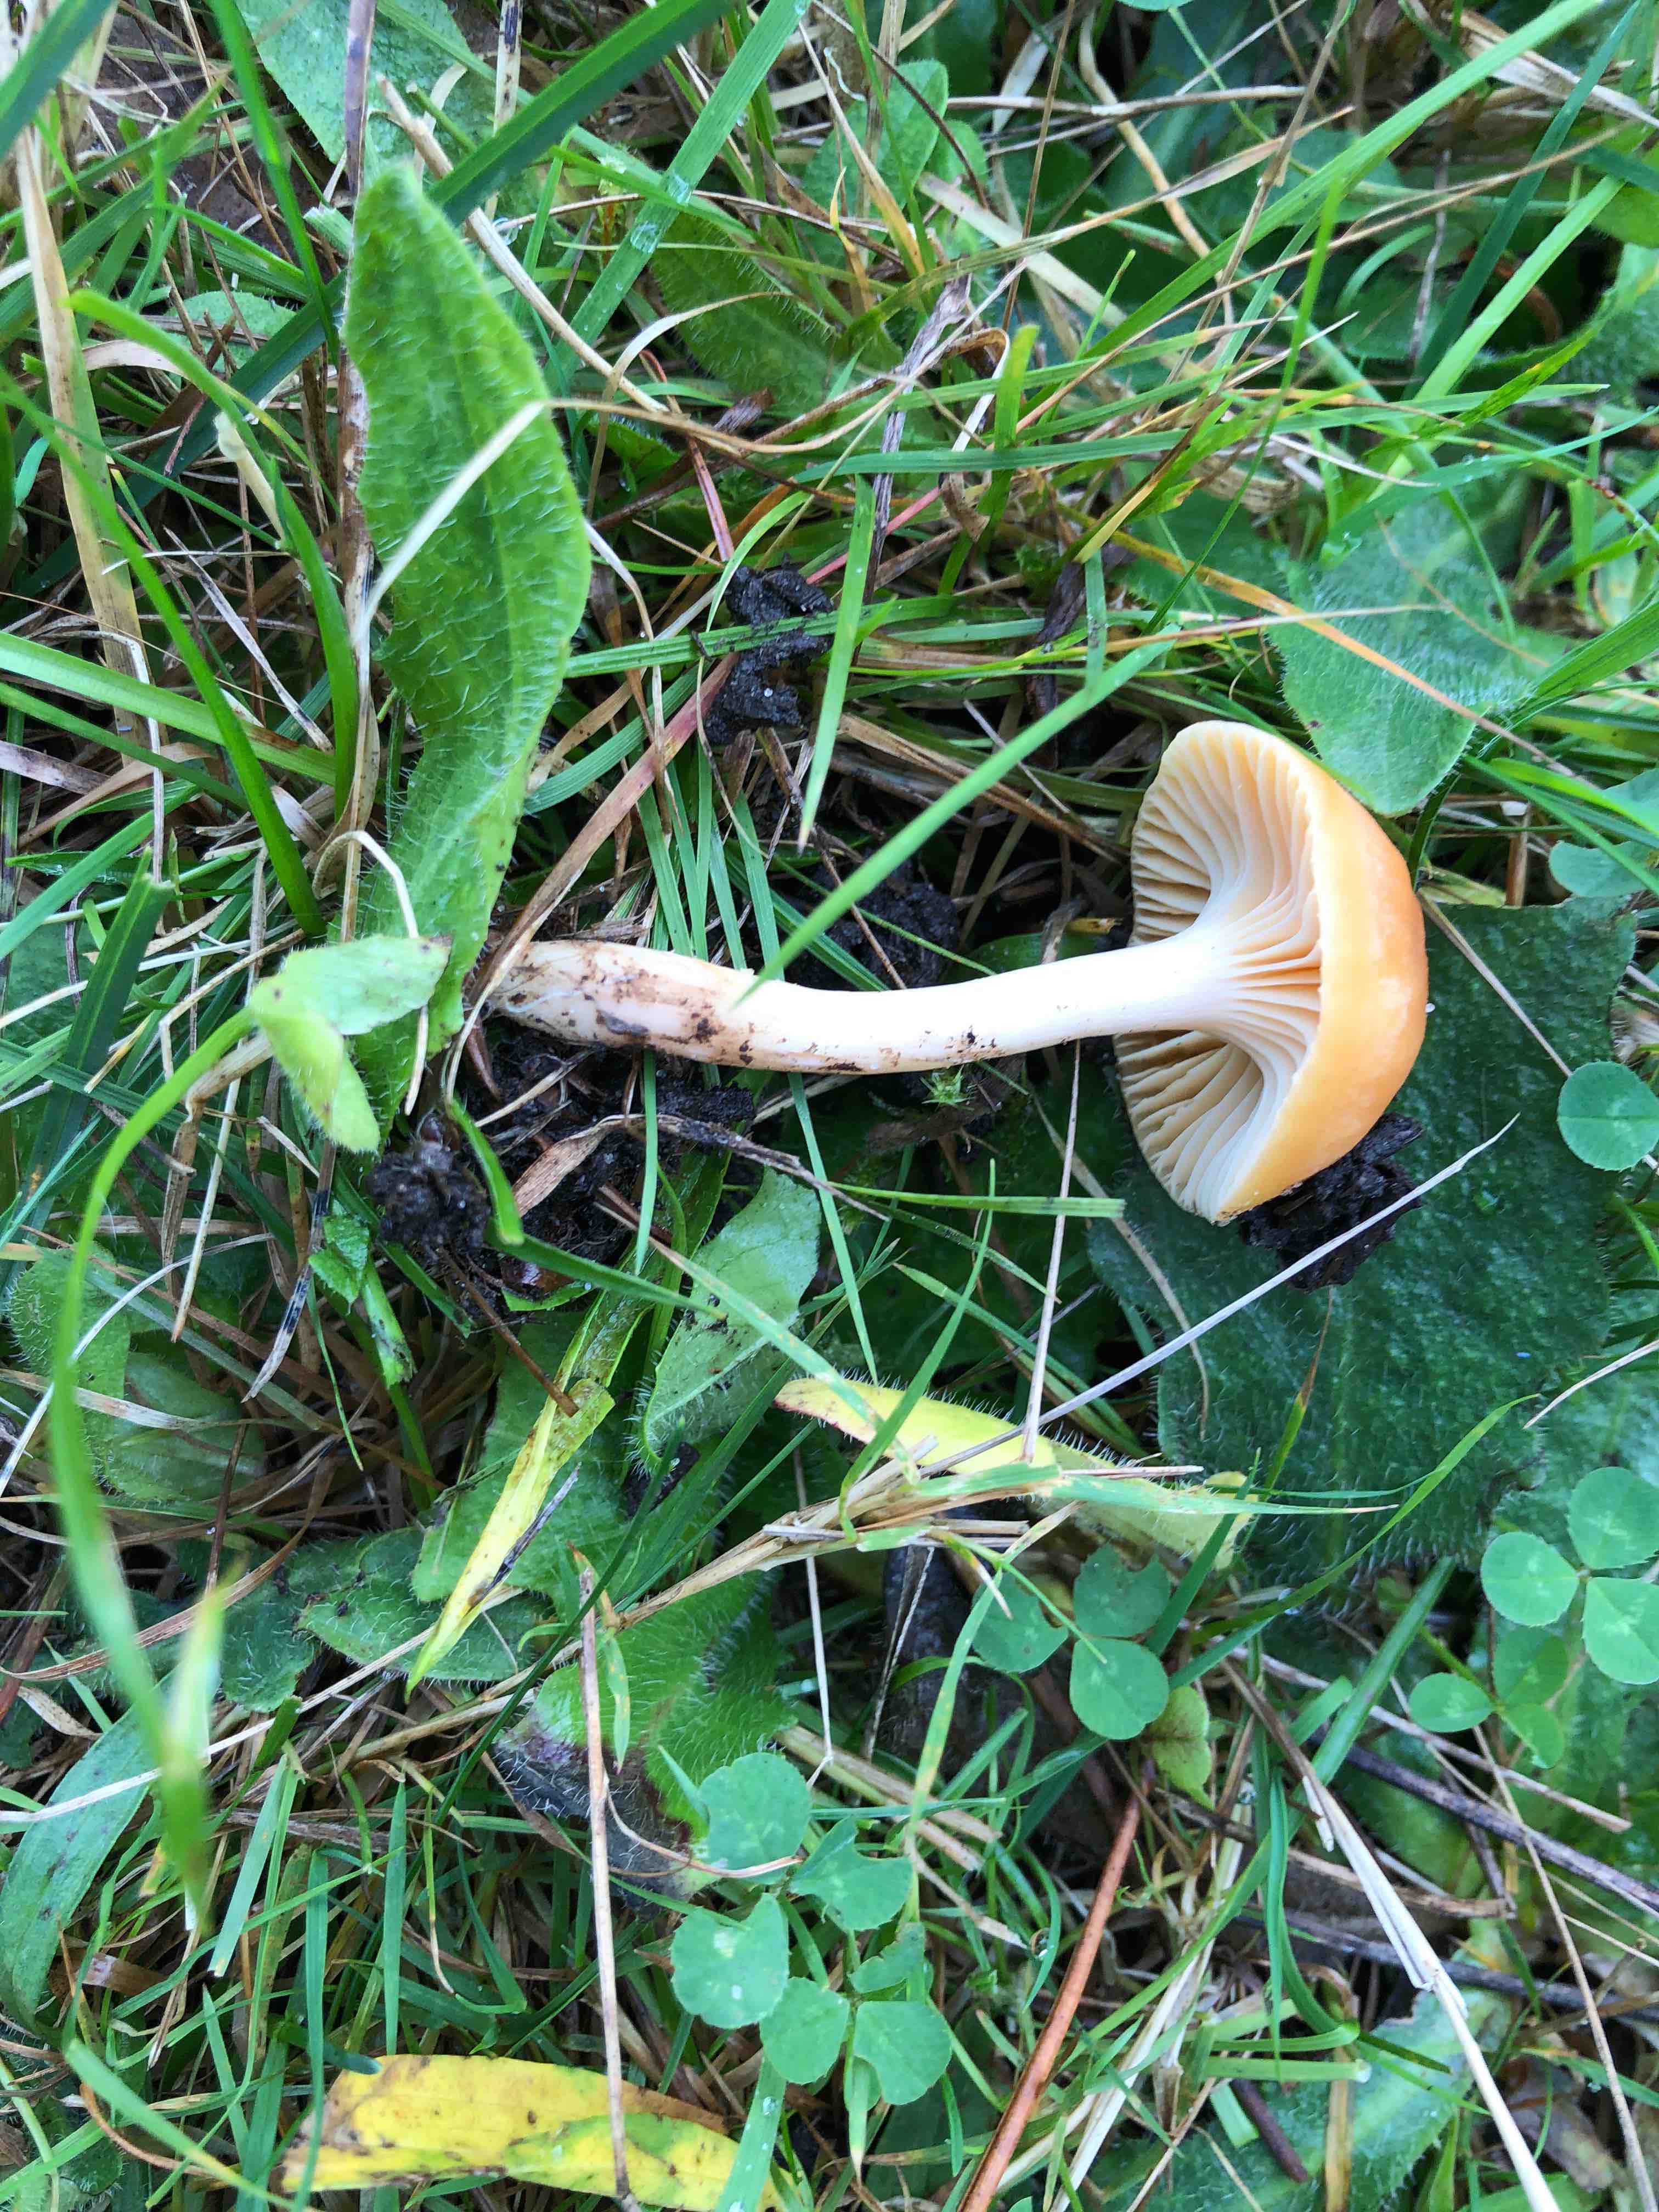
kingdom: Fungi
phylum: Basidiomycota
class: Agaricomycetes
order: Agaricales
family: Hygrophoraceae
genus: Cuphophyllus
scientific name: Cuphophyllus pratensis
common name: eng-vokshat
